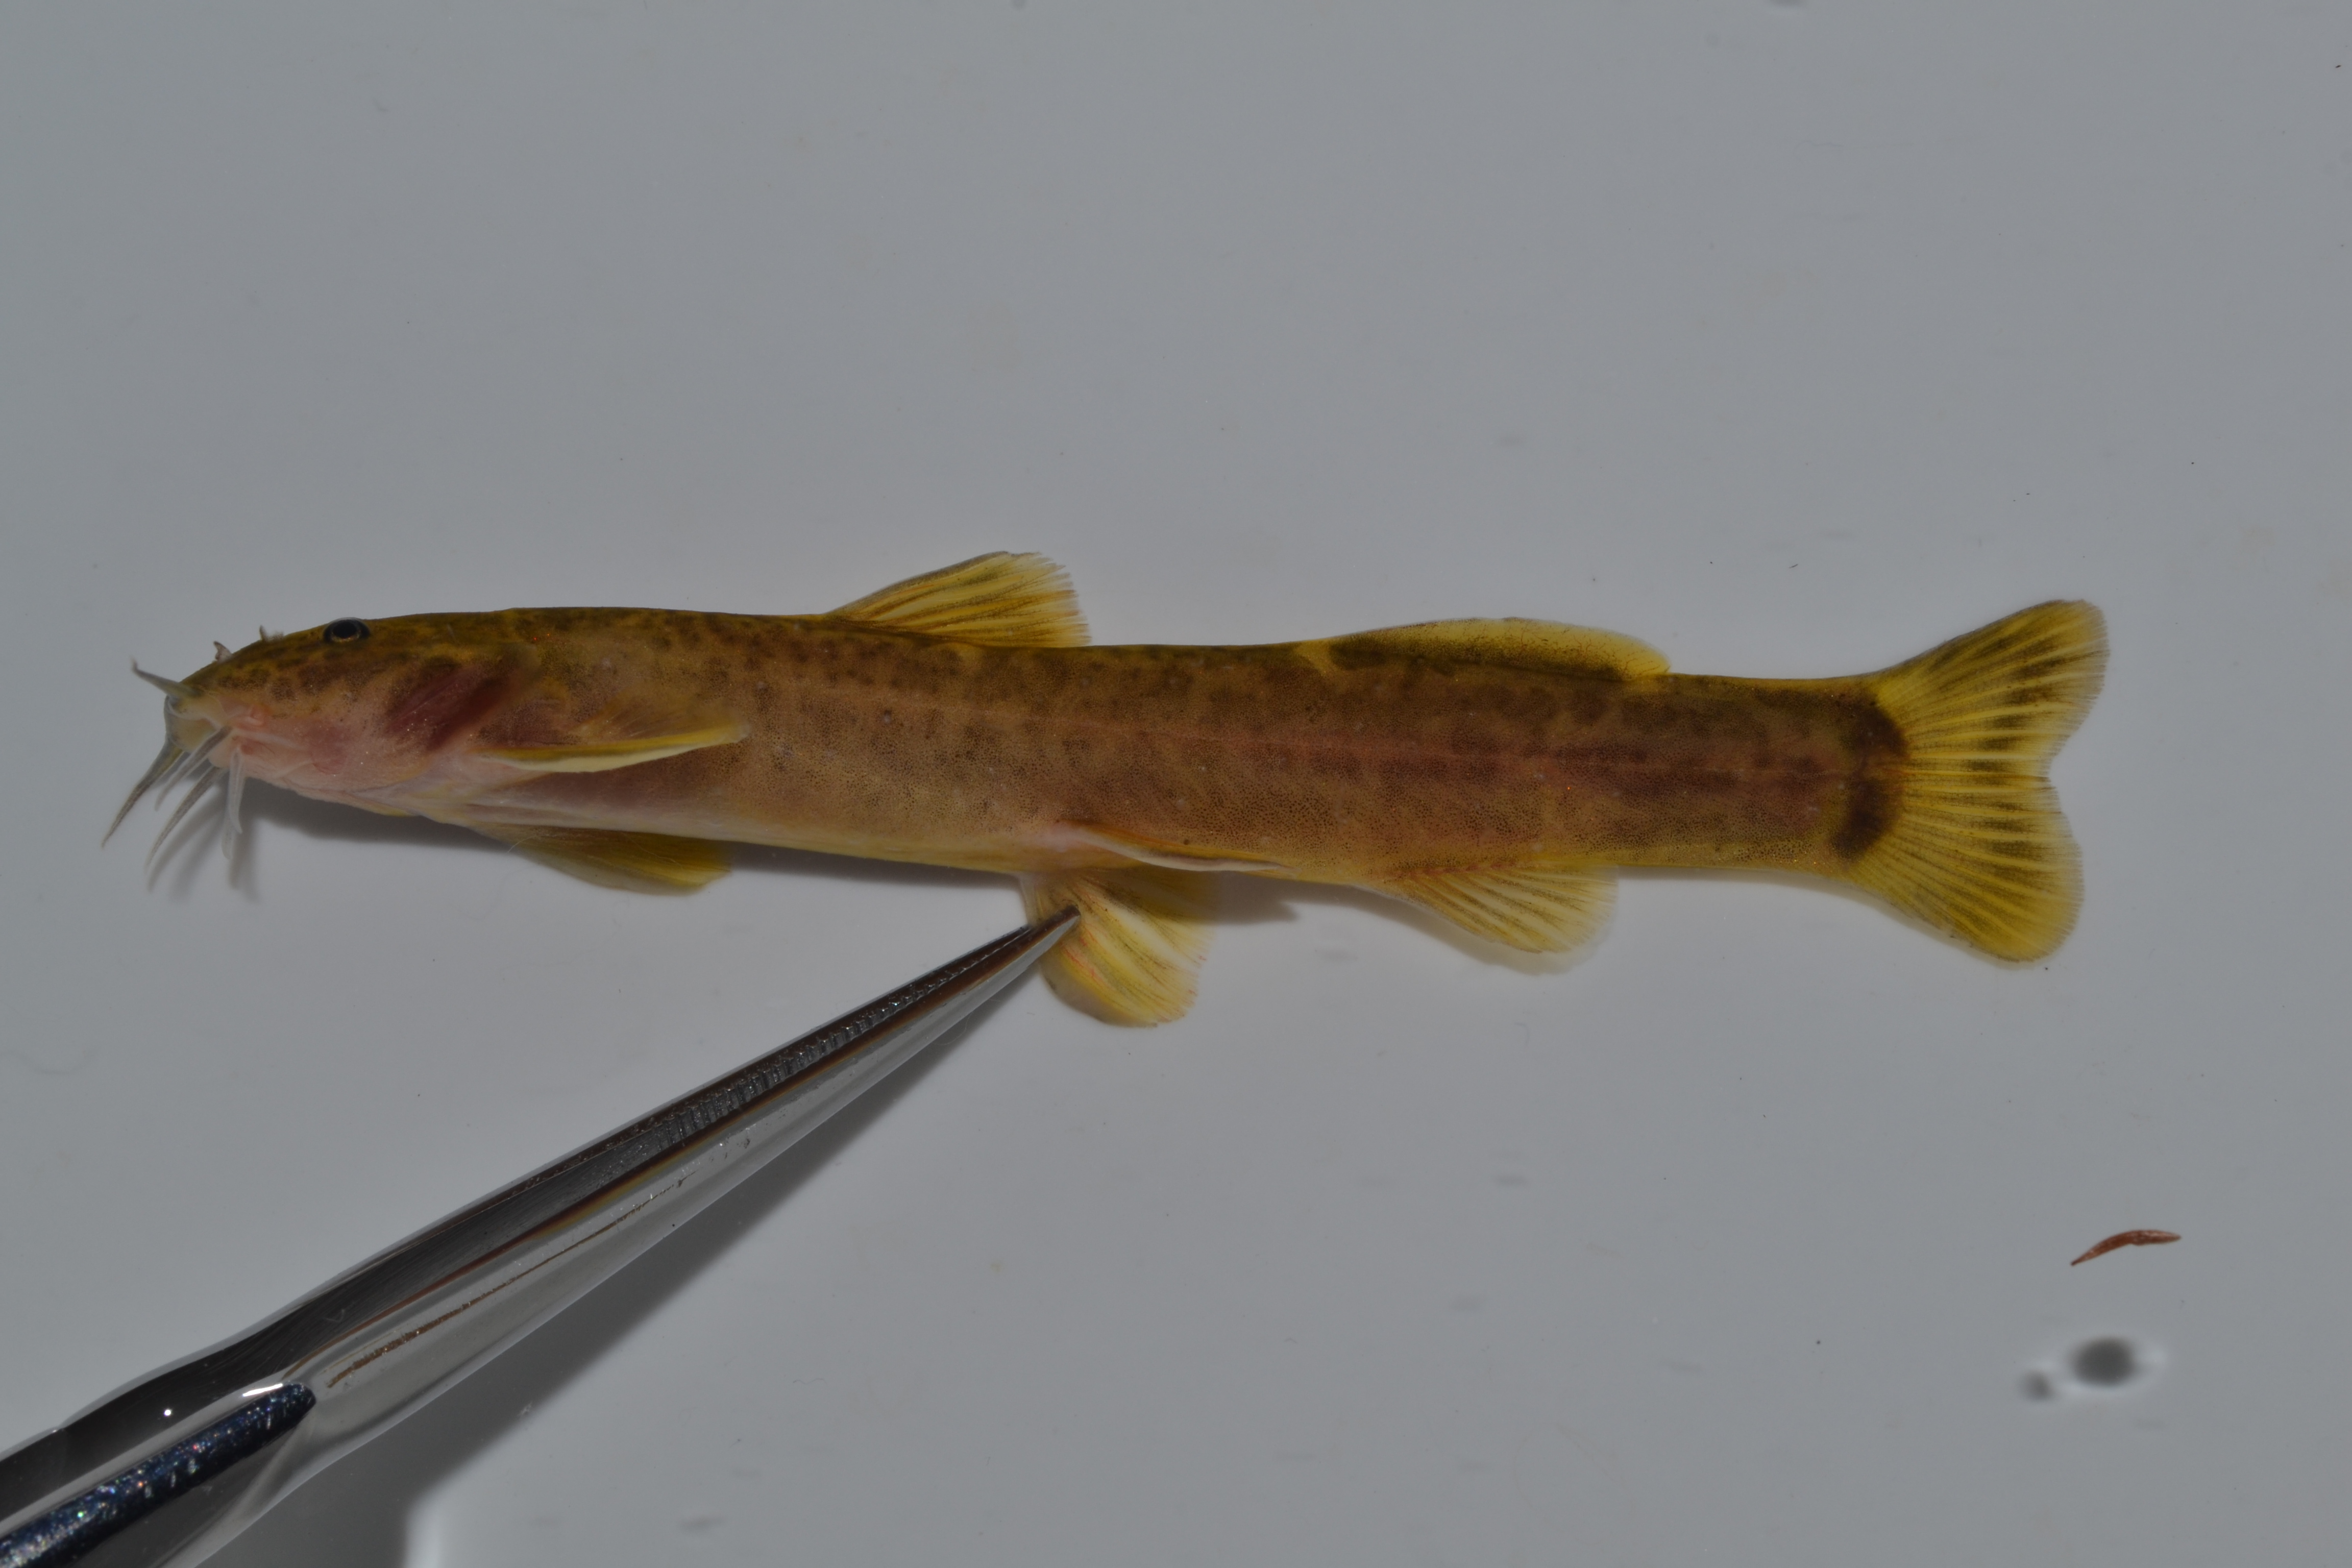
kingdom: Animalia
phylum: Chordata
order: Siluriformes
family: Amphiliidae
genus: Amphilius
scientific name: Amphilius engelbrechti
